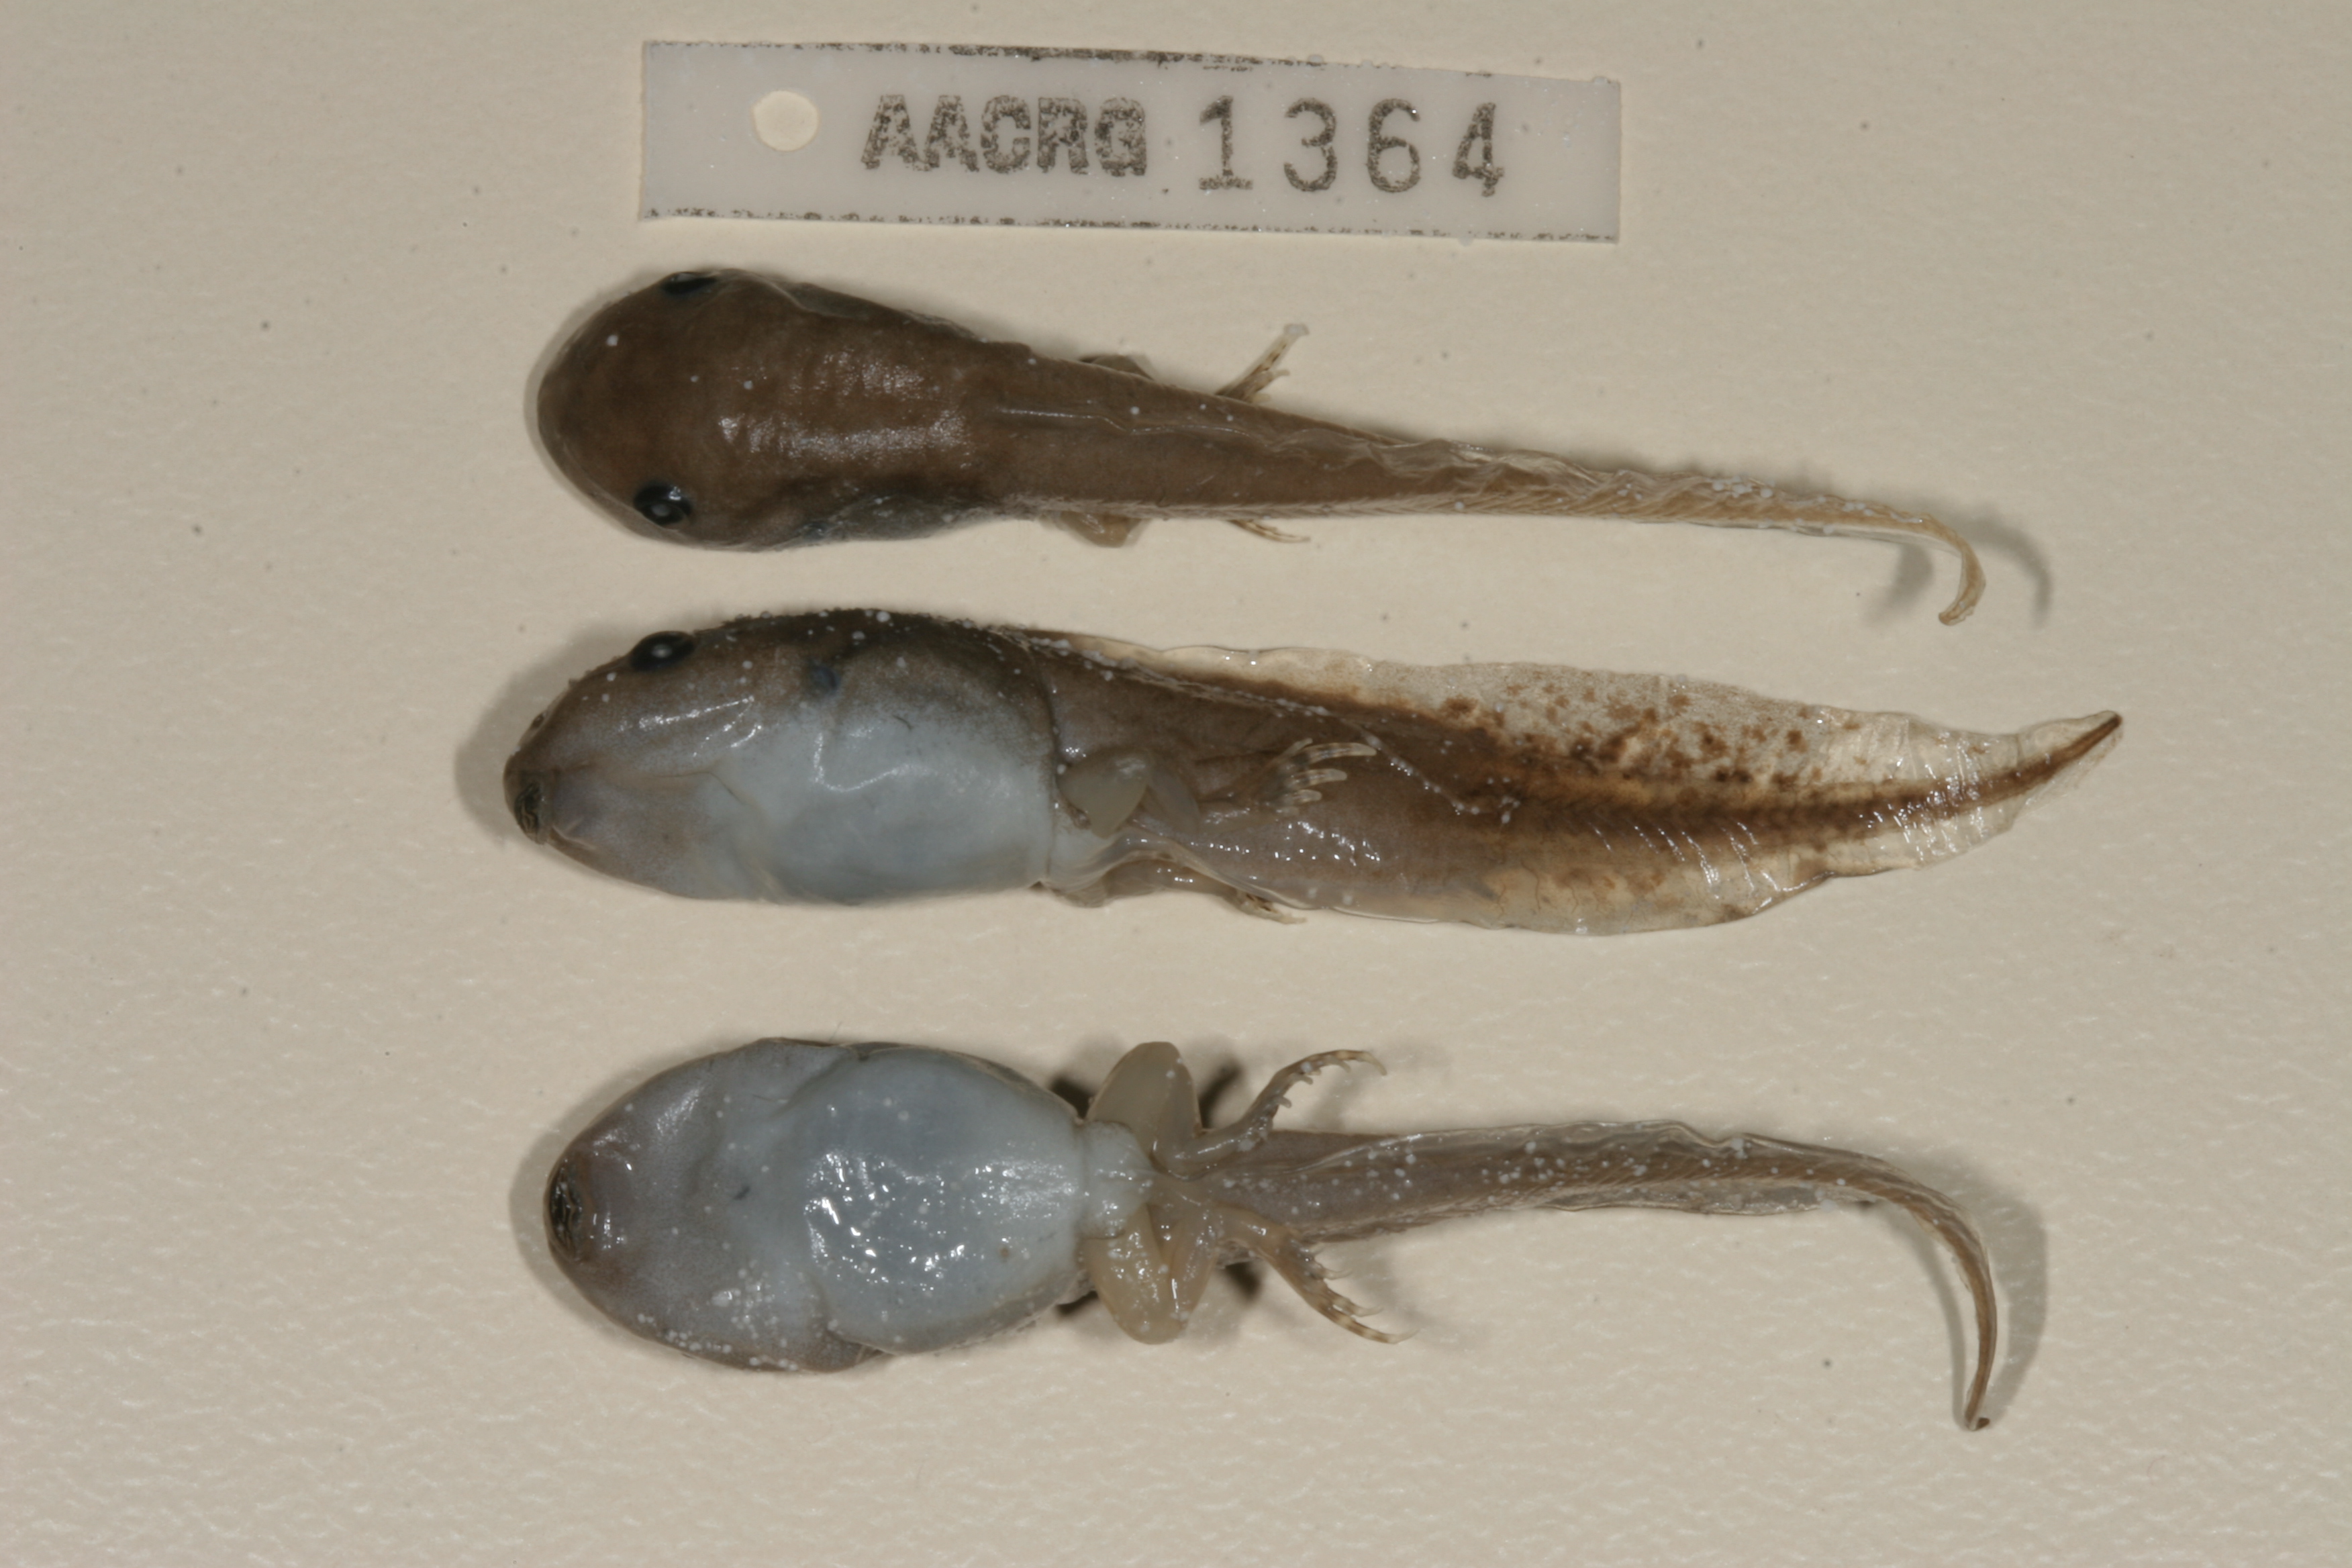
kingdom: Animalia
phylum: Chordata
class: Amphibia
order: Anura
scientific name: Anura
